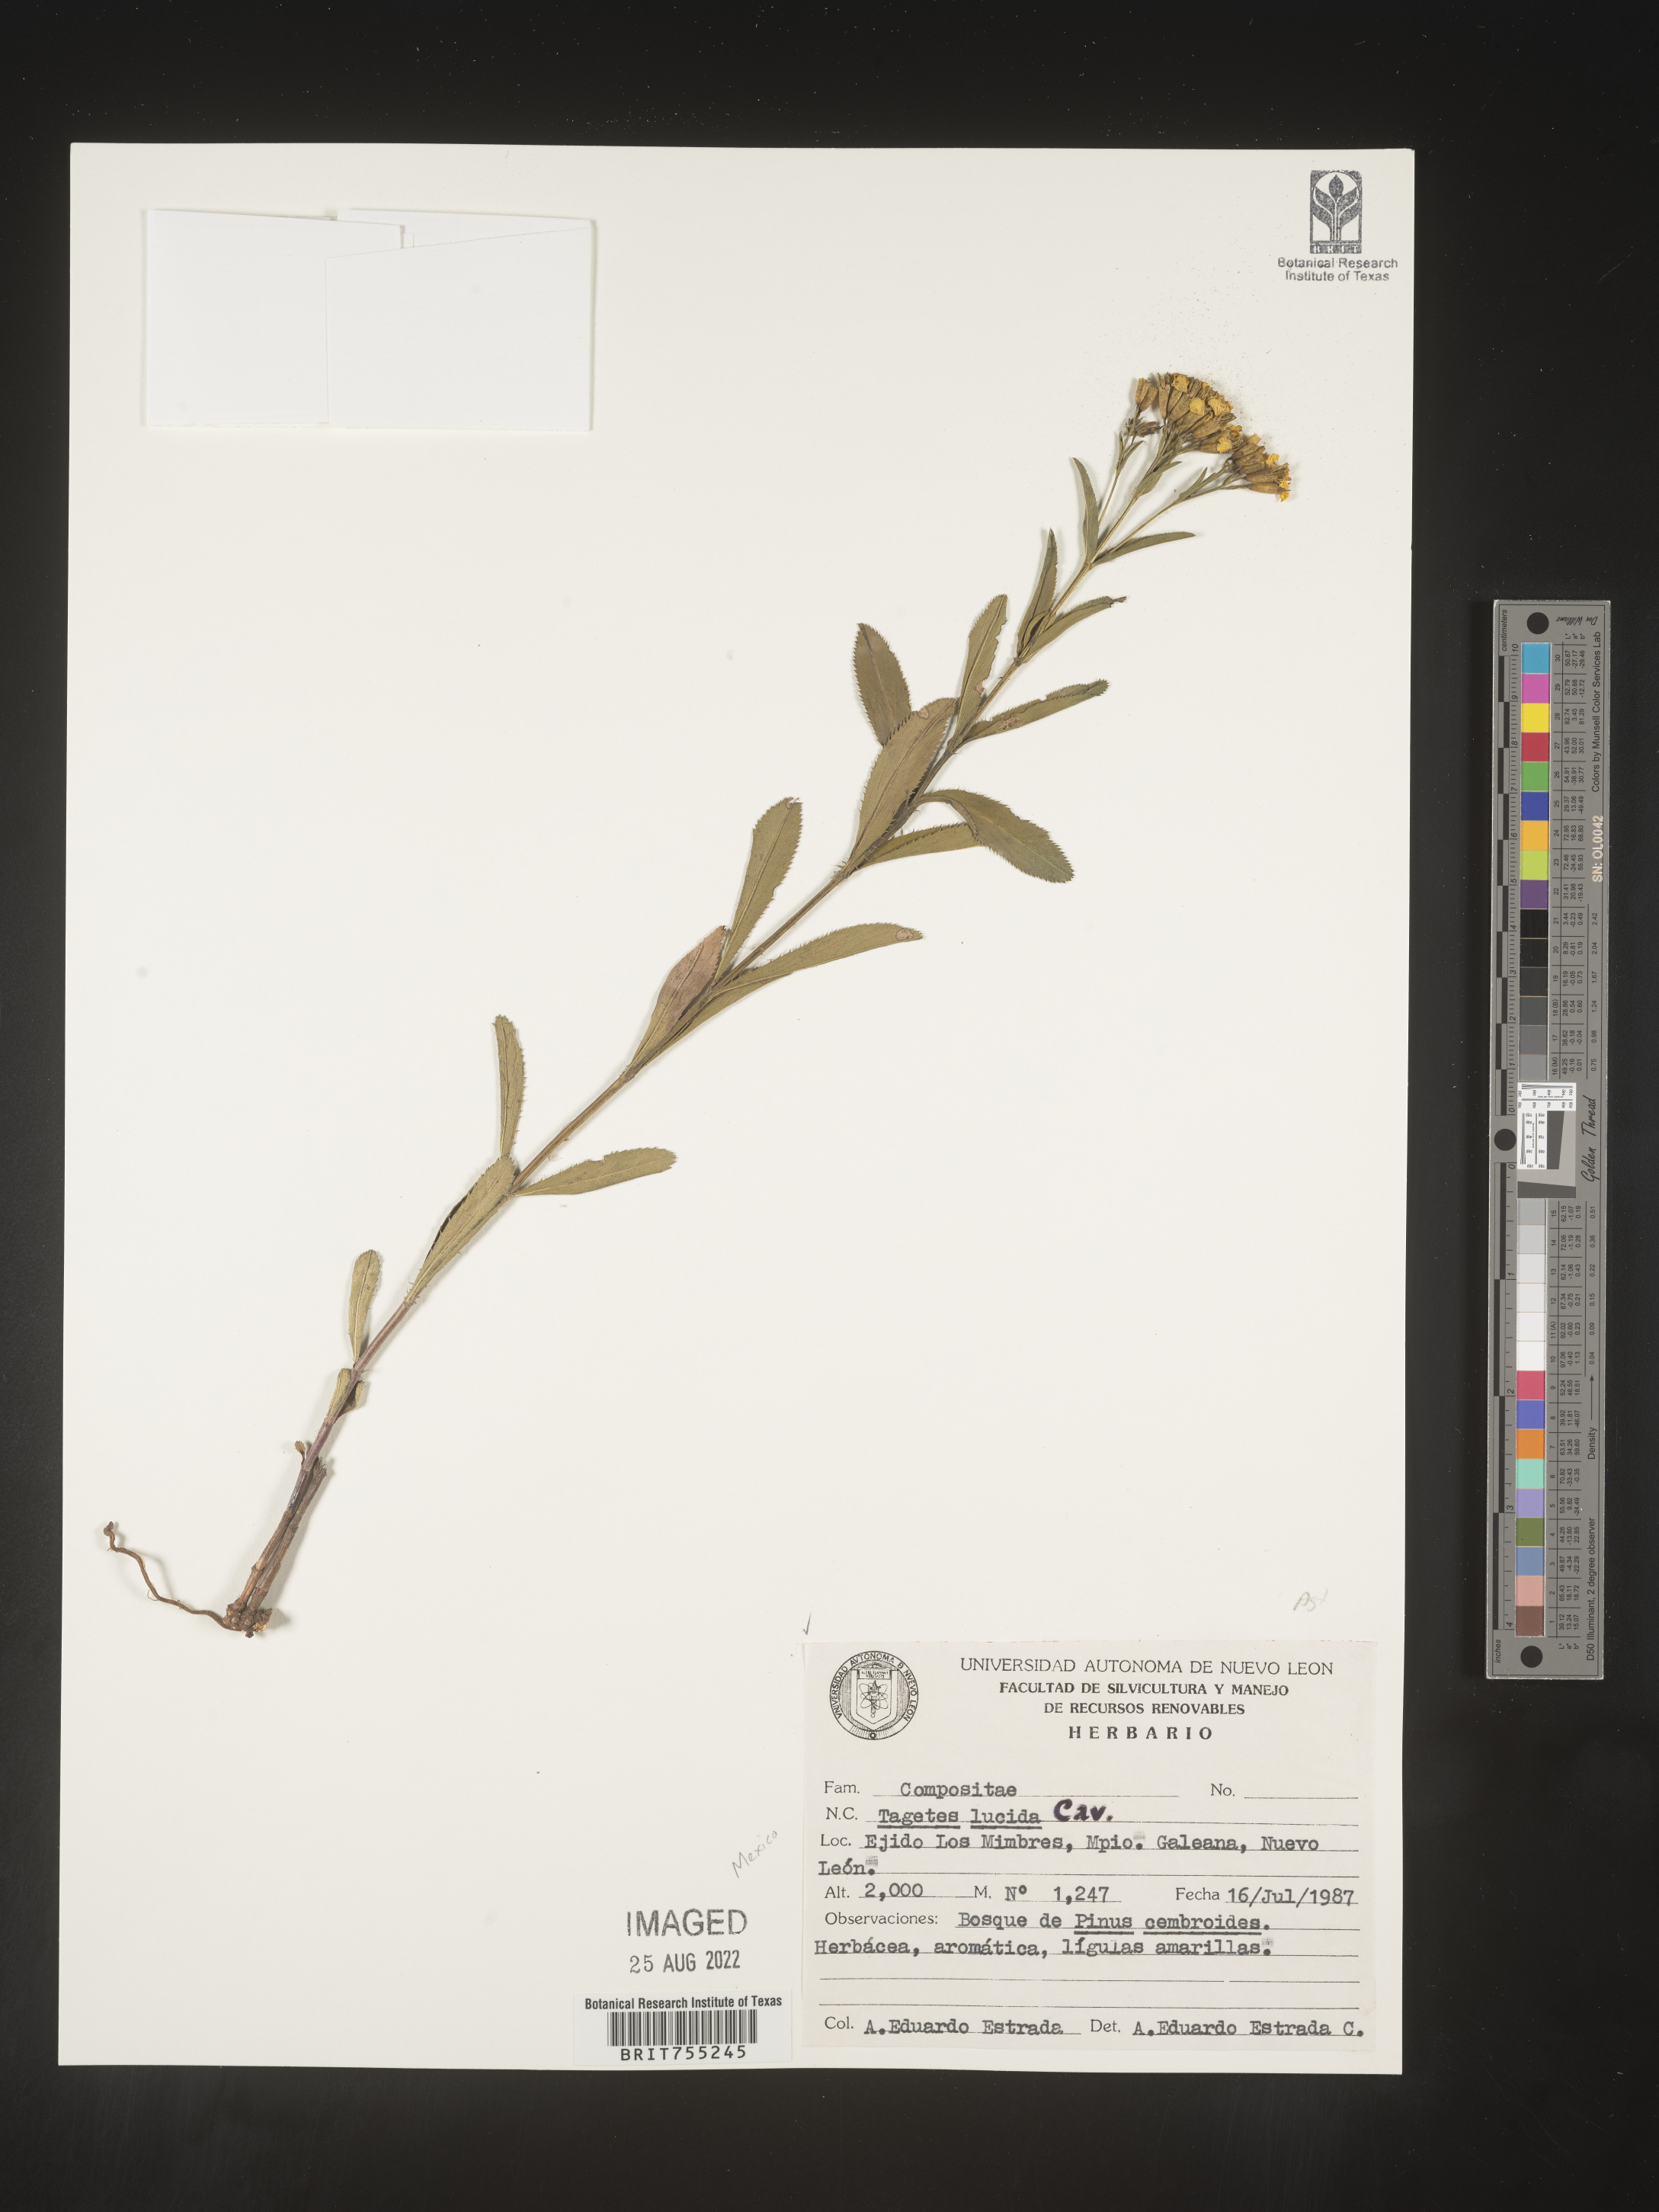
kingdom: Plantae
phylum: Tracheophyta
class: Magnoliopsida
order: Asterales
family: Asteraceae
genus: Tagetes
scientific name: Tagetes lucida
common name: Sweetscented marigold
